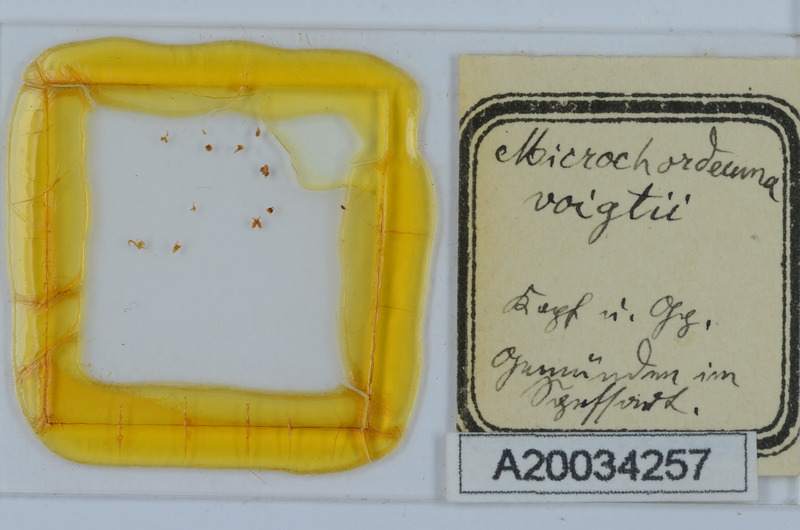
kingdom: Animalia
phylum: Arthropoda
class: Diplopoda
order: Chordeumatida
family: Chordeumatidae
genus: Melogona
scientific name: Melogona voigtii
